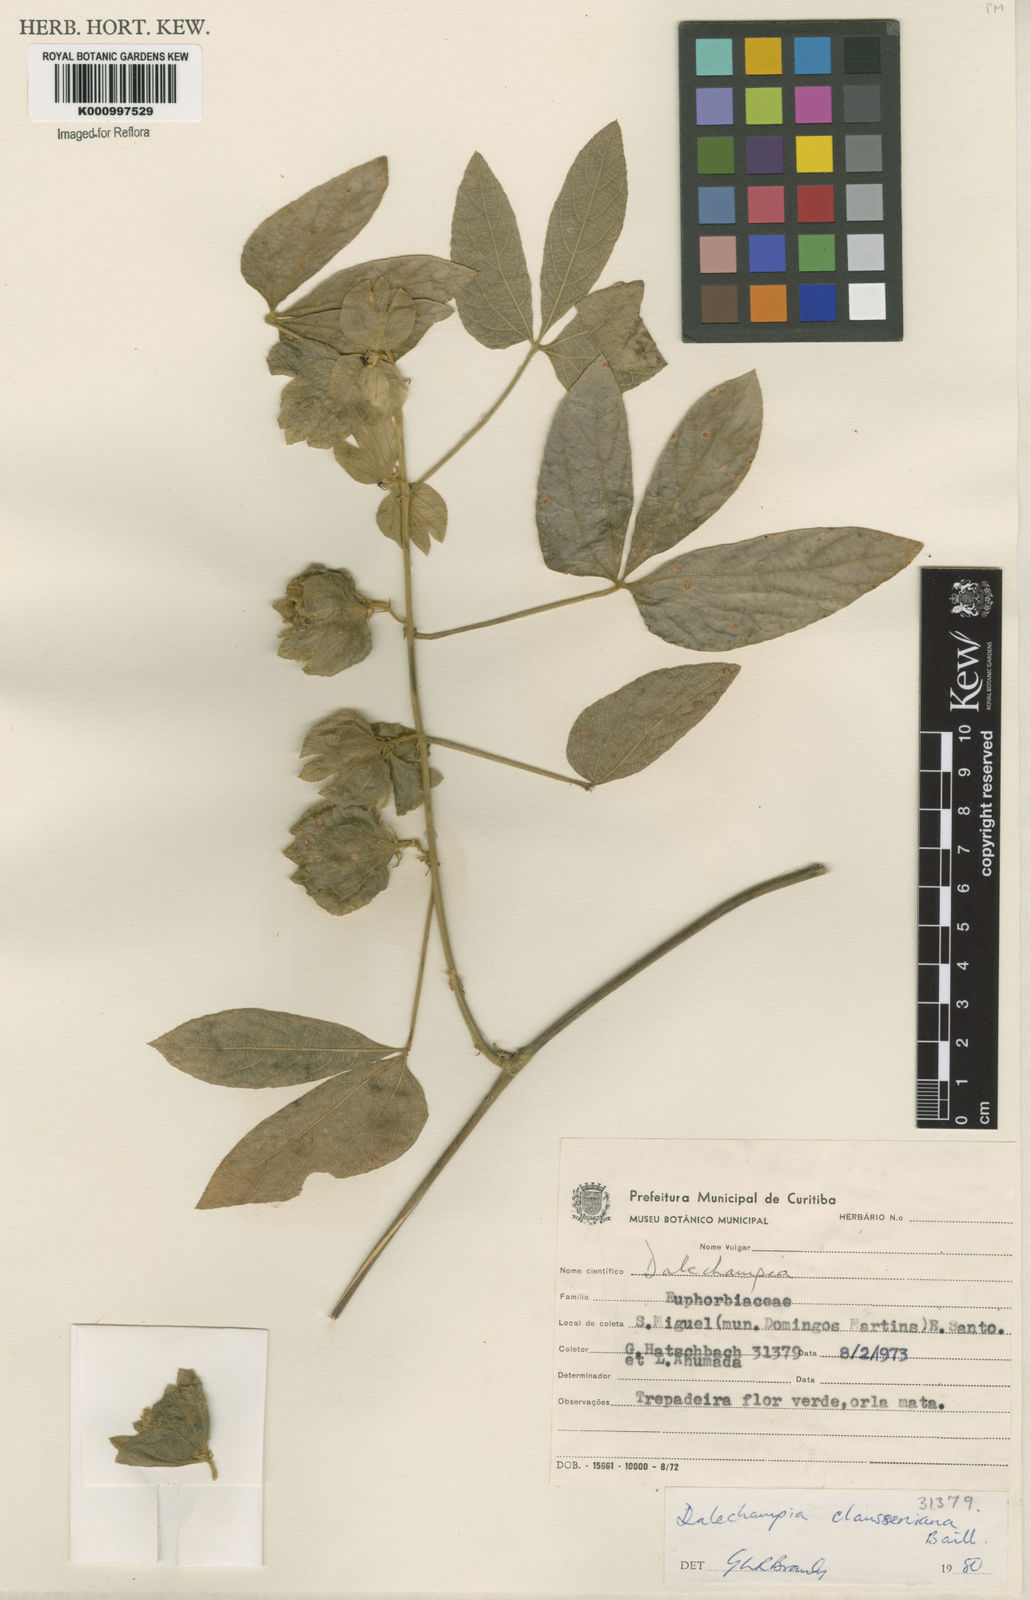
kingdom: Plantae
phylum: Tracheophyta
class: Magnoliopsida
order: Malpighiales
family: Euphorbiaceae
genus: Dalechampia
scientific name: Dalechampia clausseniana
